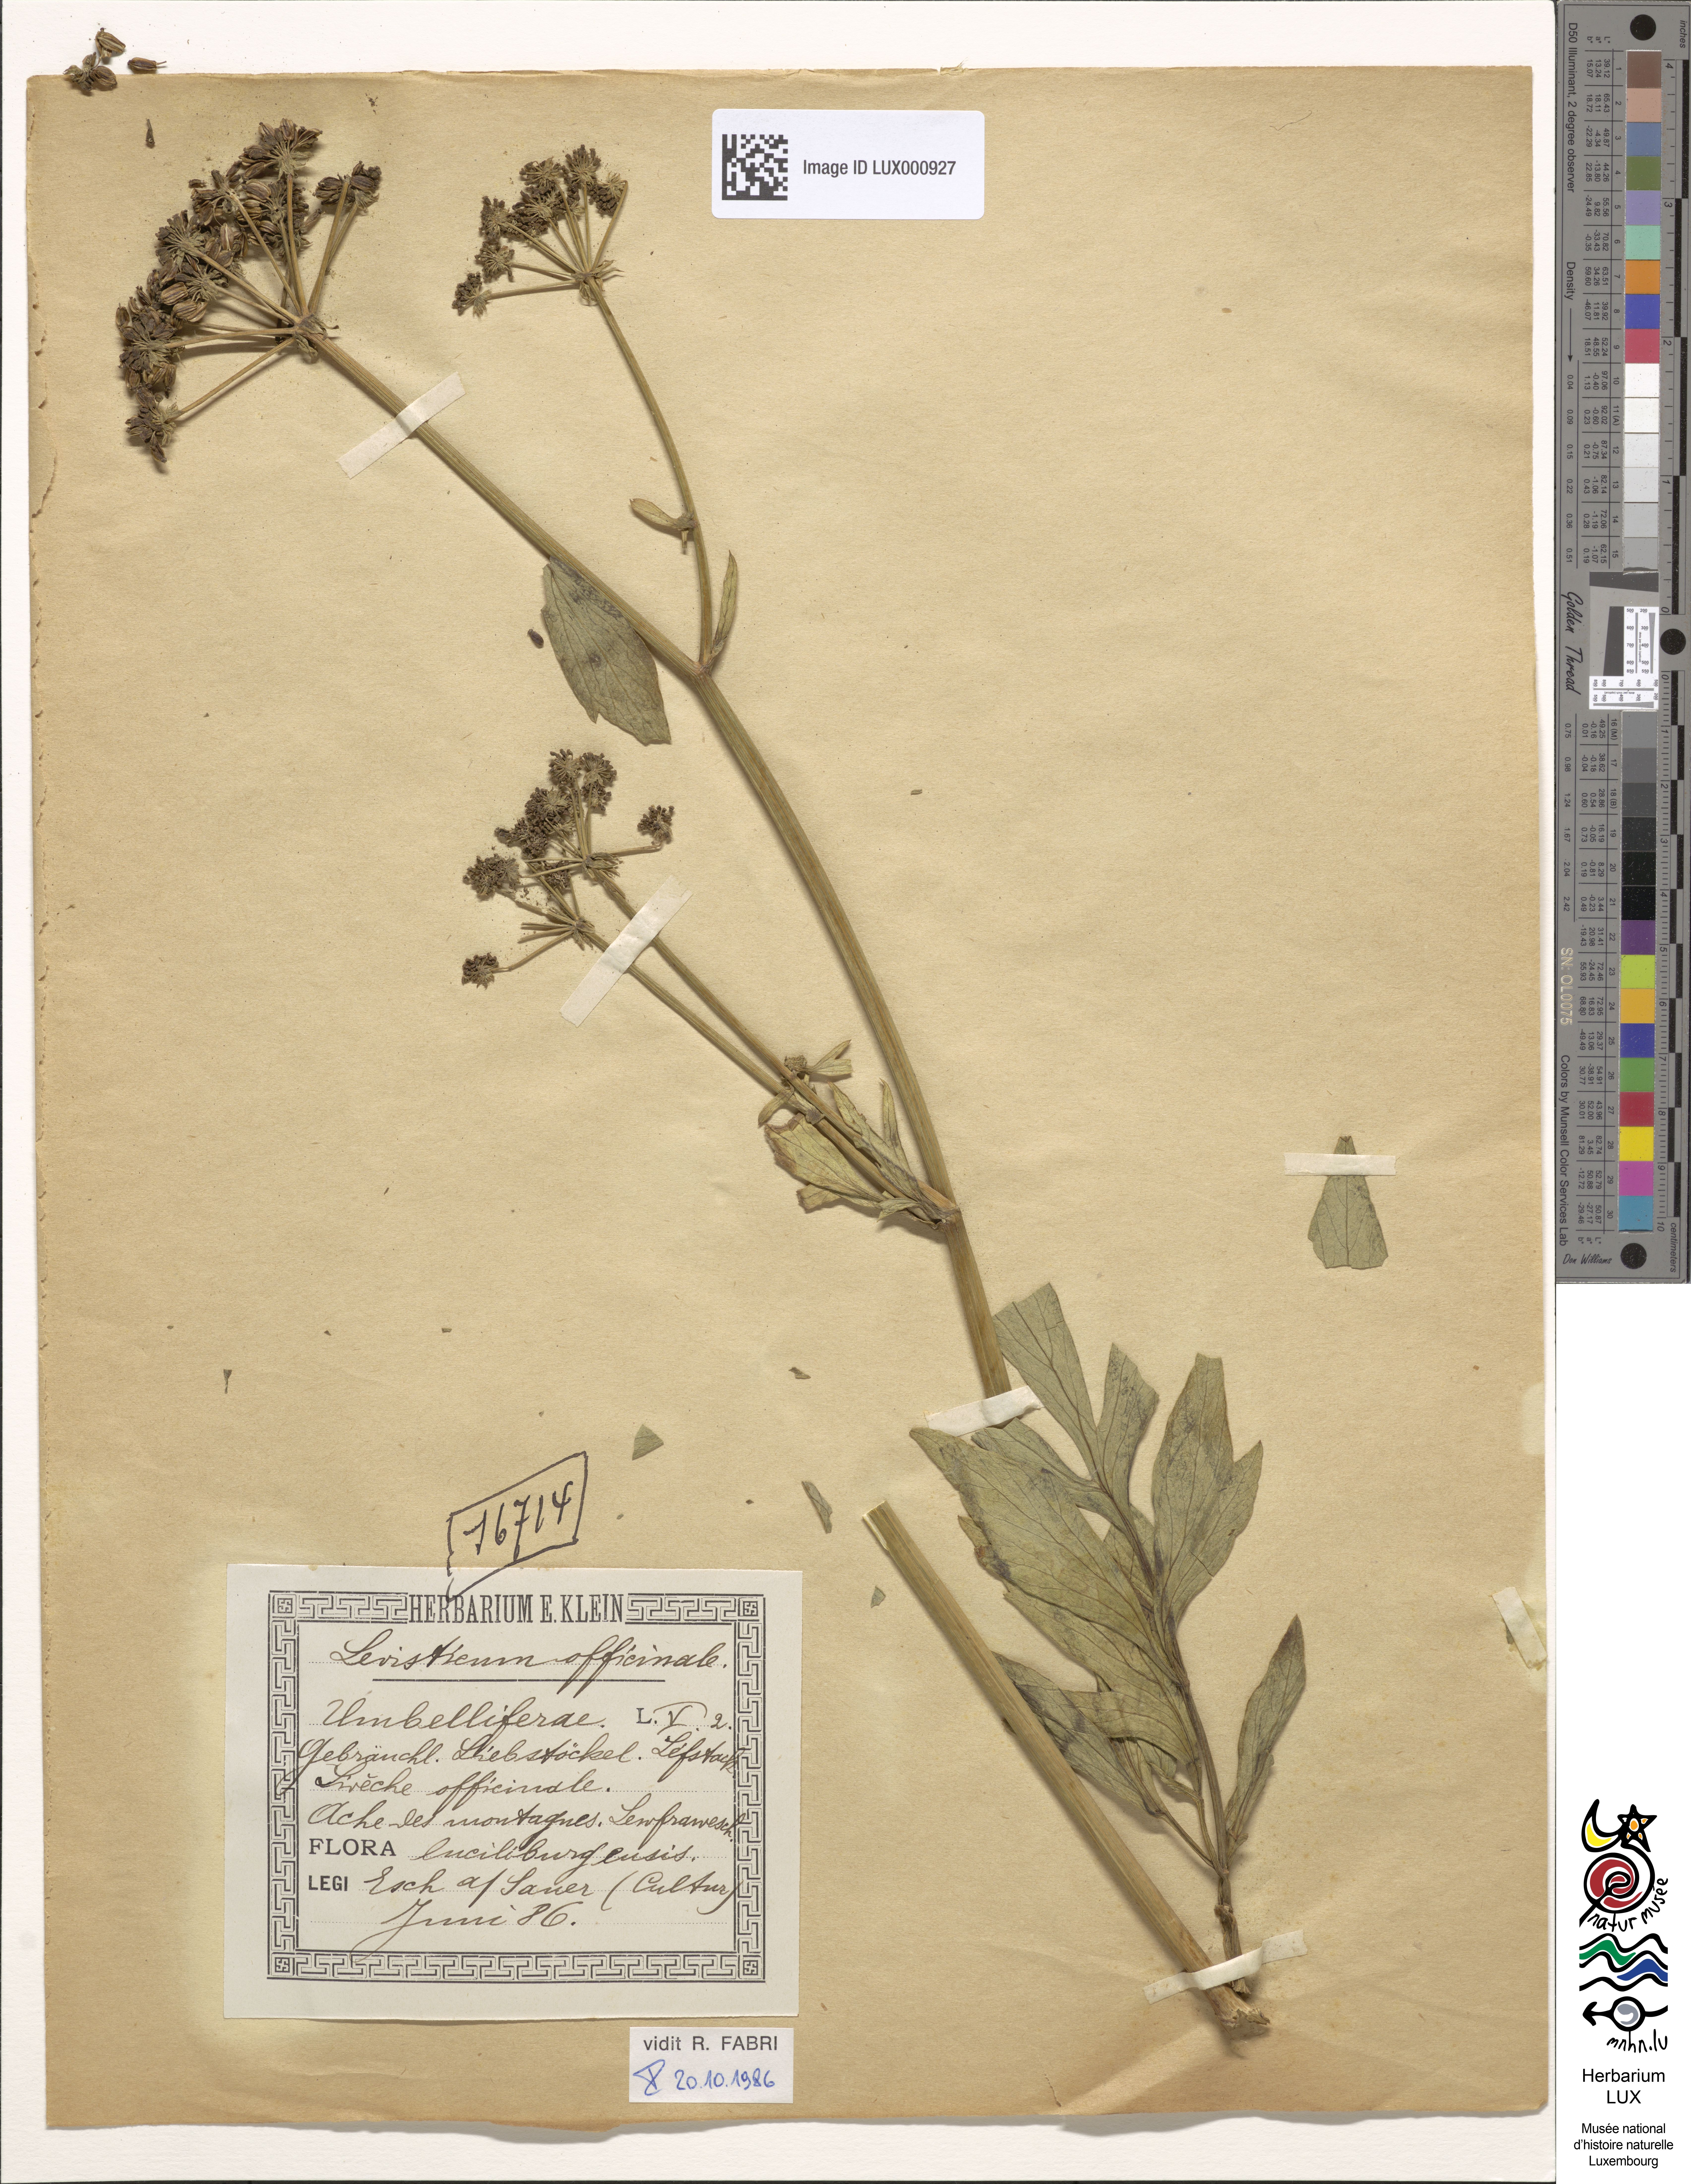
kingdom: Plantae
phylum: Tracheophyta
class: Magnoliopsida
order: Apiales
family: Apiaceae
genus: Levisticum
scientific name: Levisticum officinale
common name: Lovage
